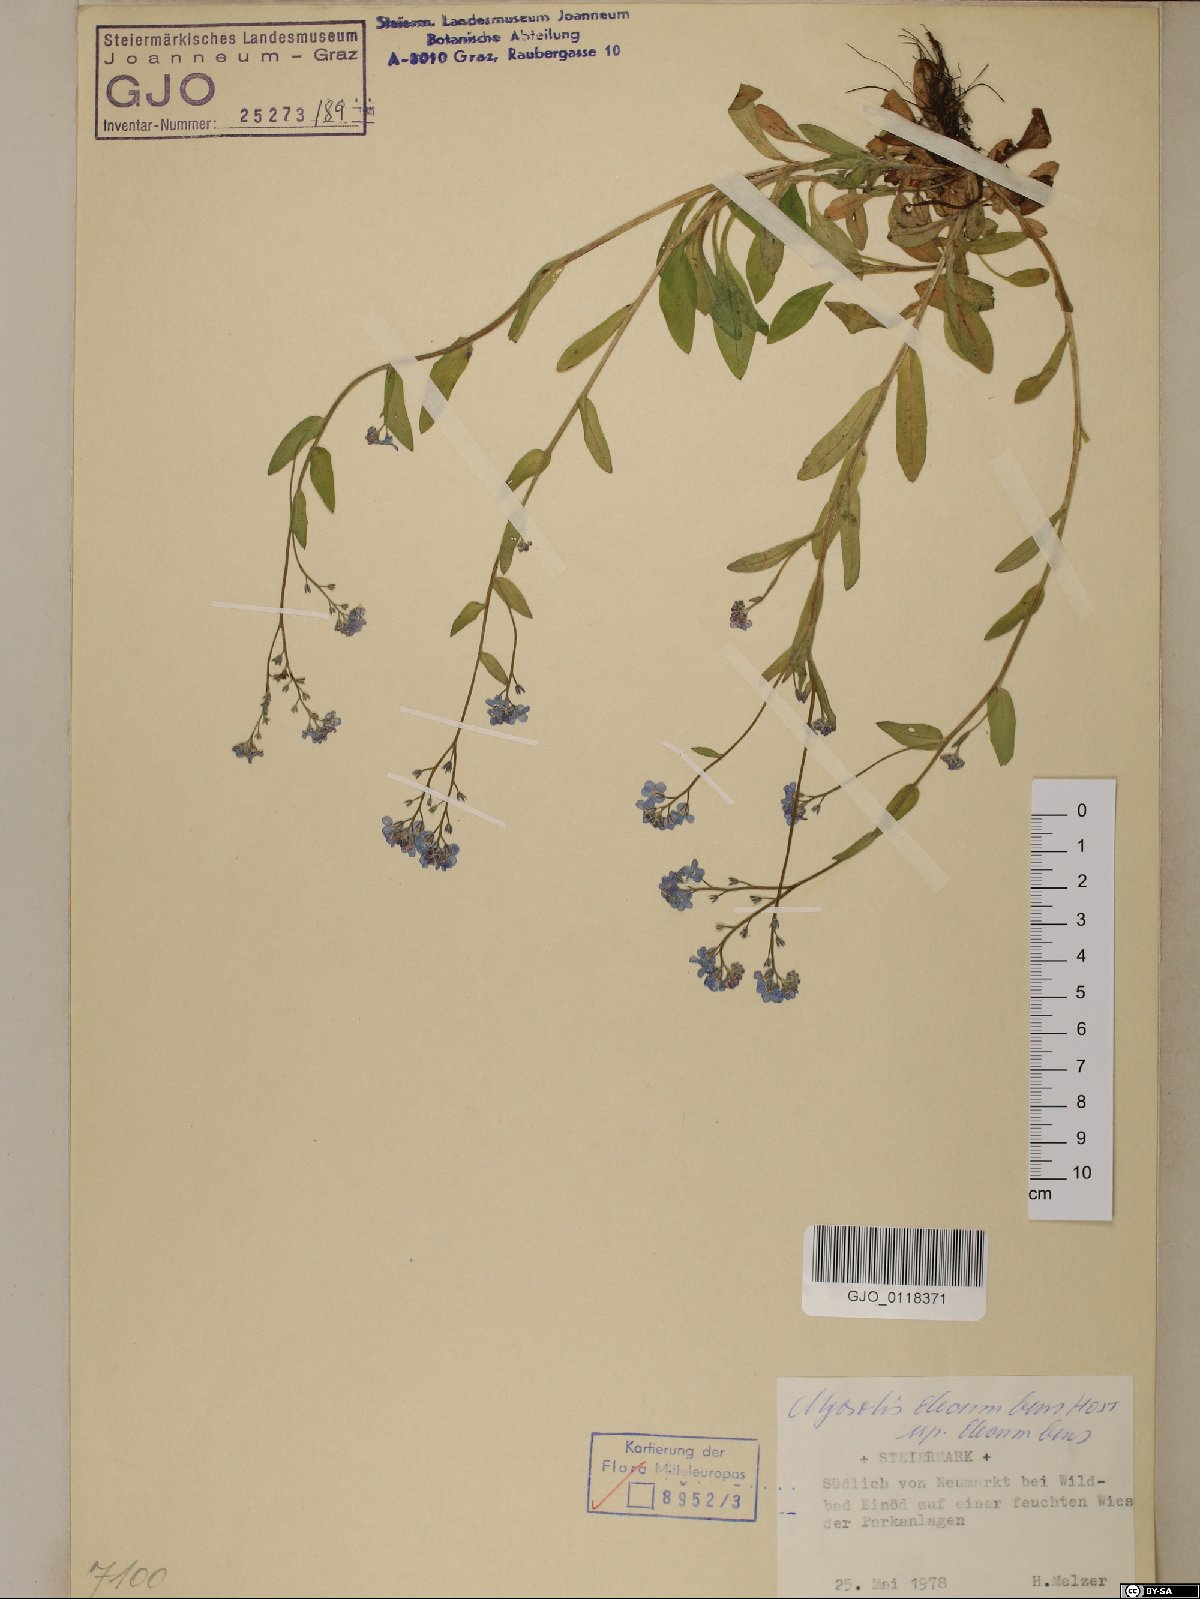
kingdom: Plantae
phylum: Tracheophyta
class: Magnoliopsida
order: Boraginales
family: Boraginaceae
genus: Myosotis
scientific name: Myosotis decumbens
